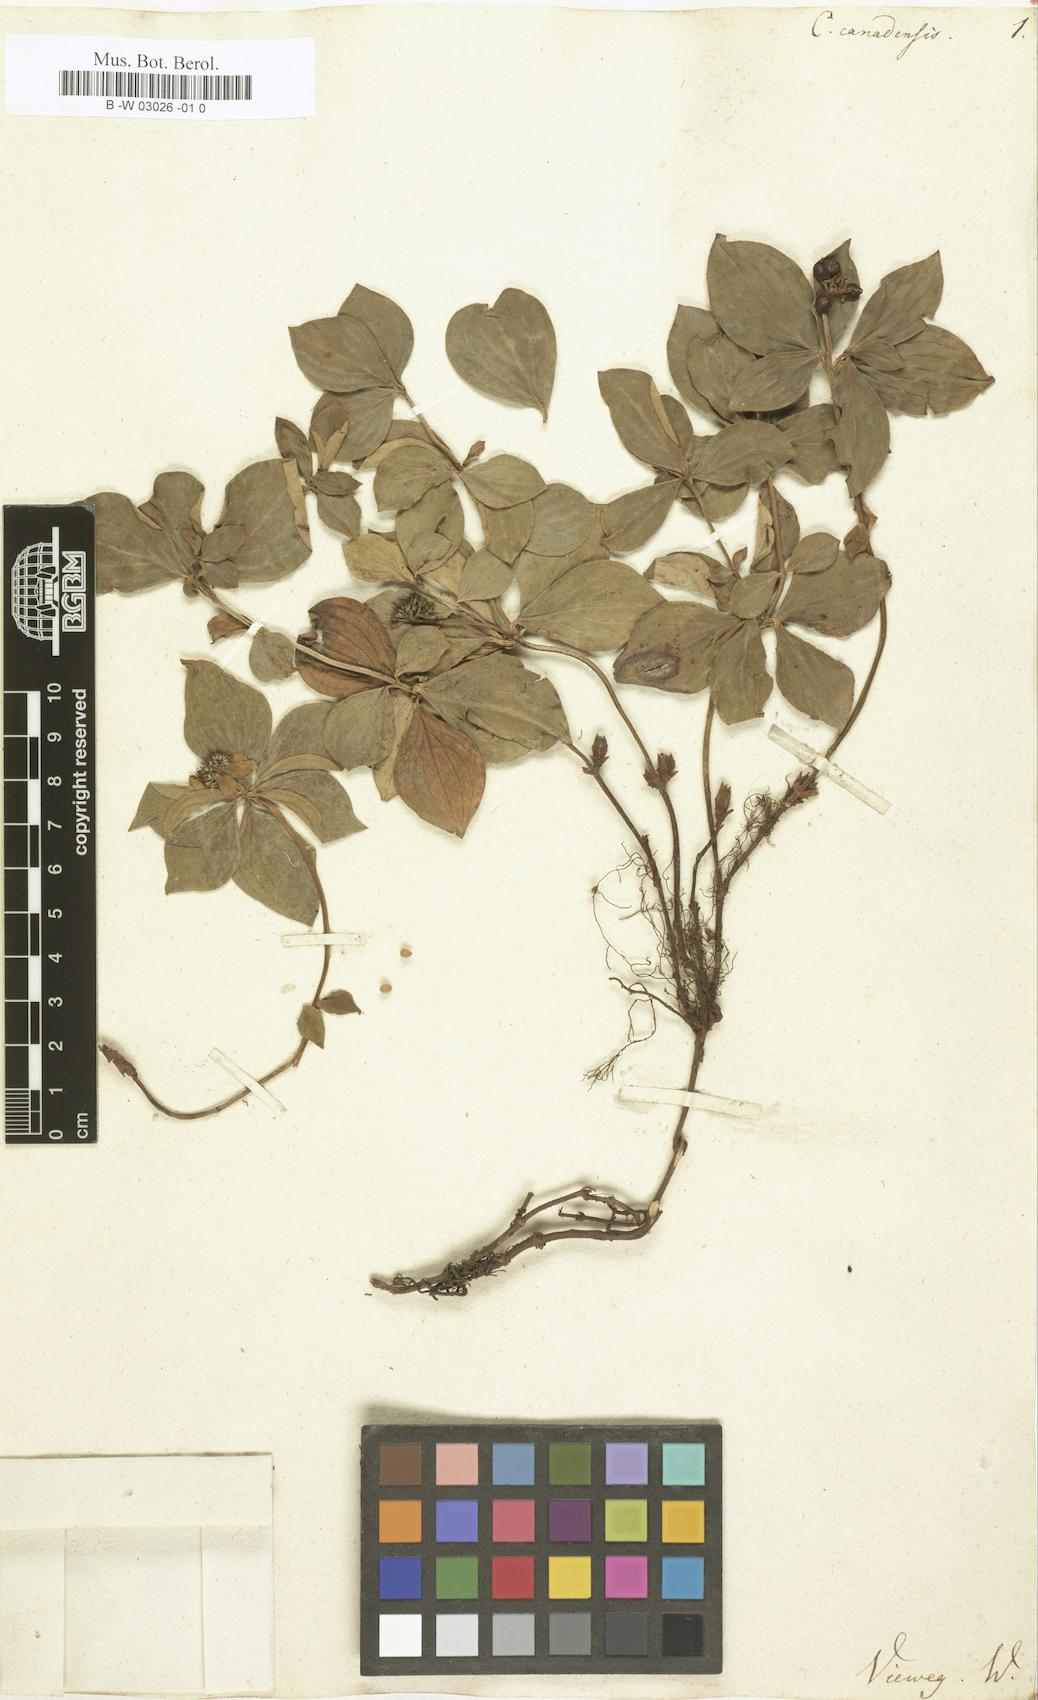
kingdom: Plantae
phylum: Tracheophyta
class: Magnoliopsida
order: Cornales
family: Cornaceae
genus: Cornus
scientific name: Cornus canadensis
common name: Creeping dogwood
